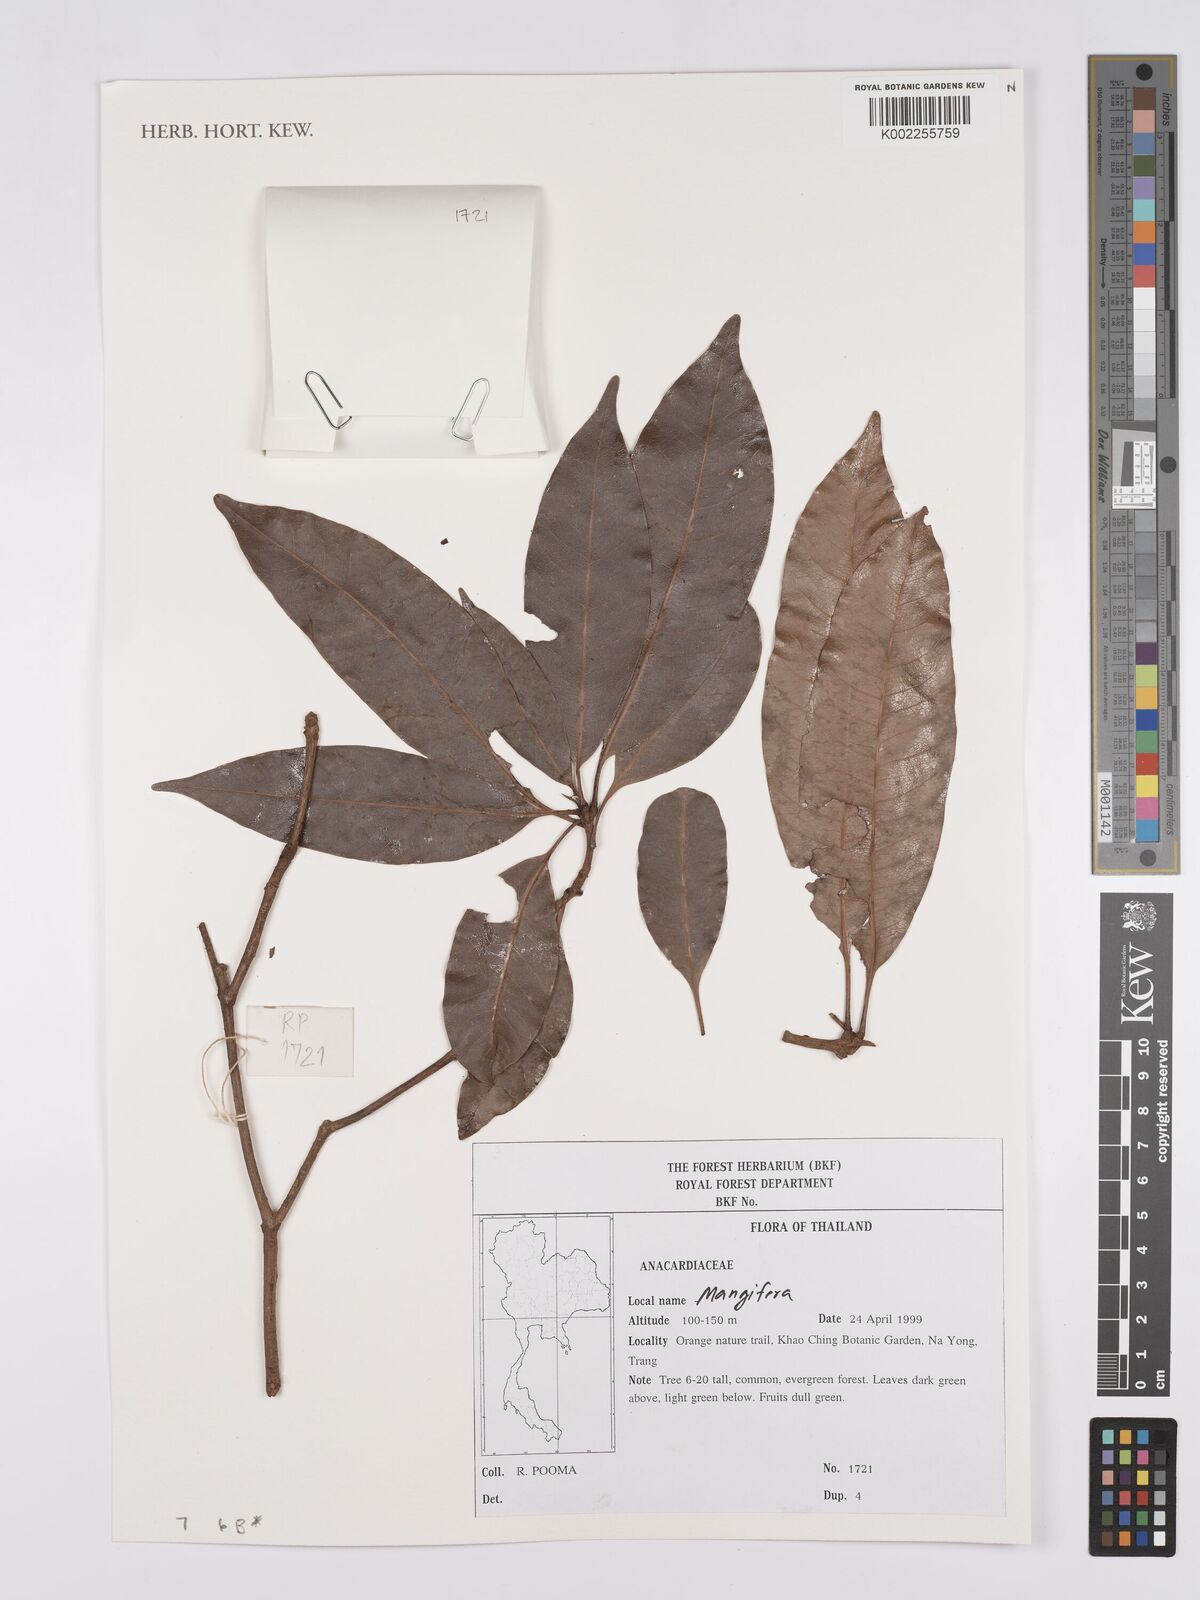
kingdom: Plantae
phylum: Tracheophyta
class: Magnoliopsida
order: Sapindales
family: Anacardiaceae
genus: Mangifera
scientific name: Mangifera
